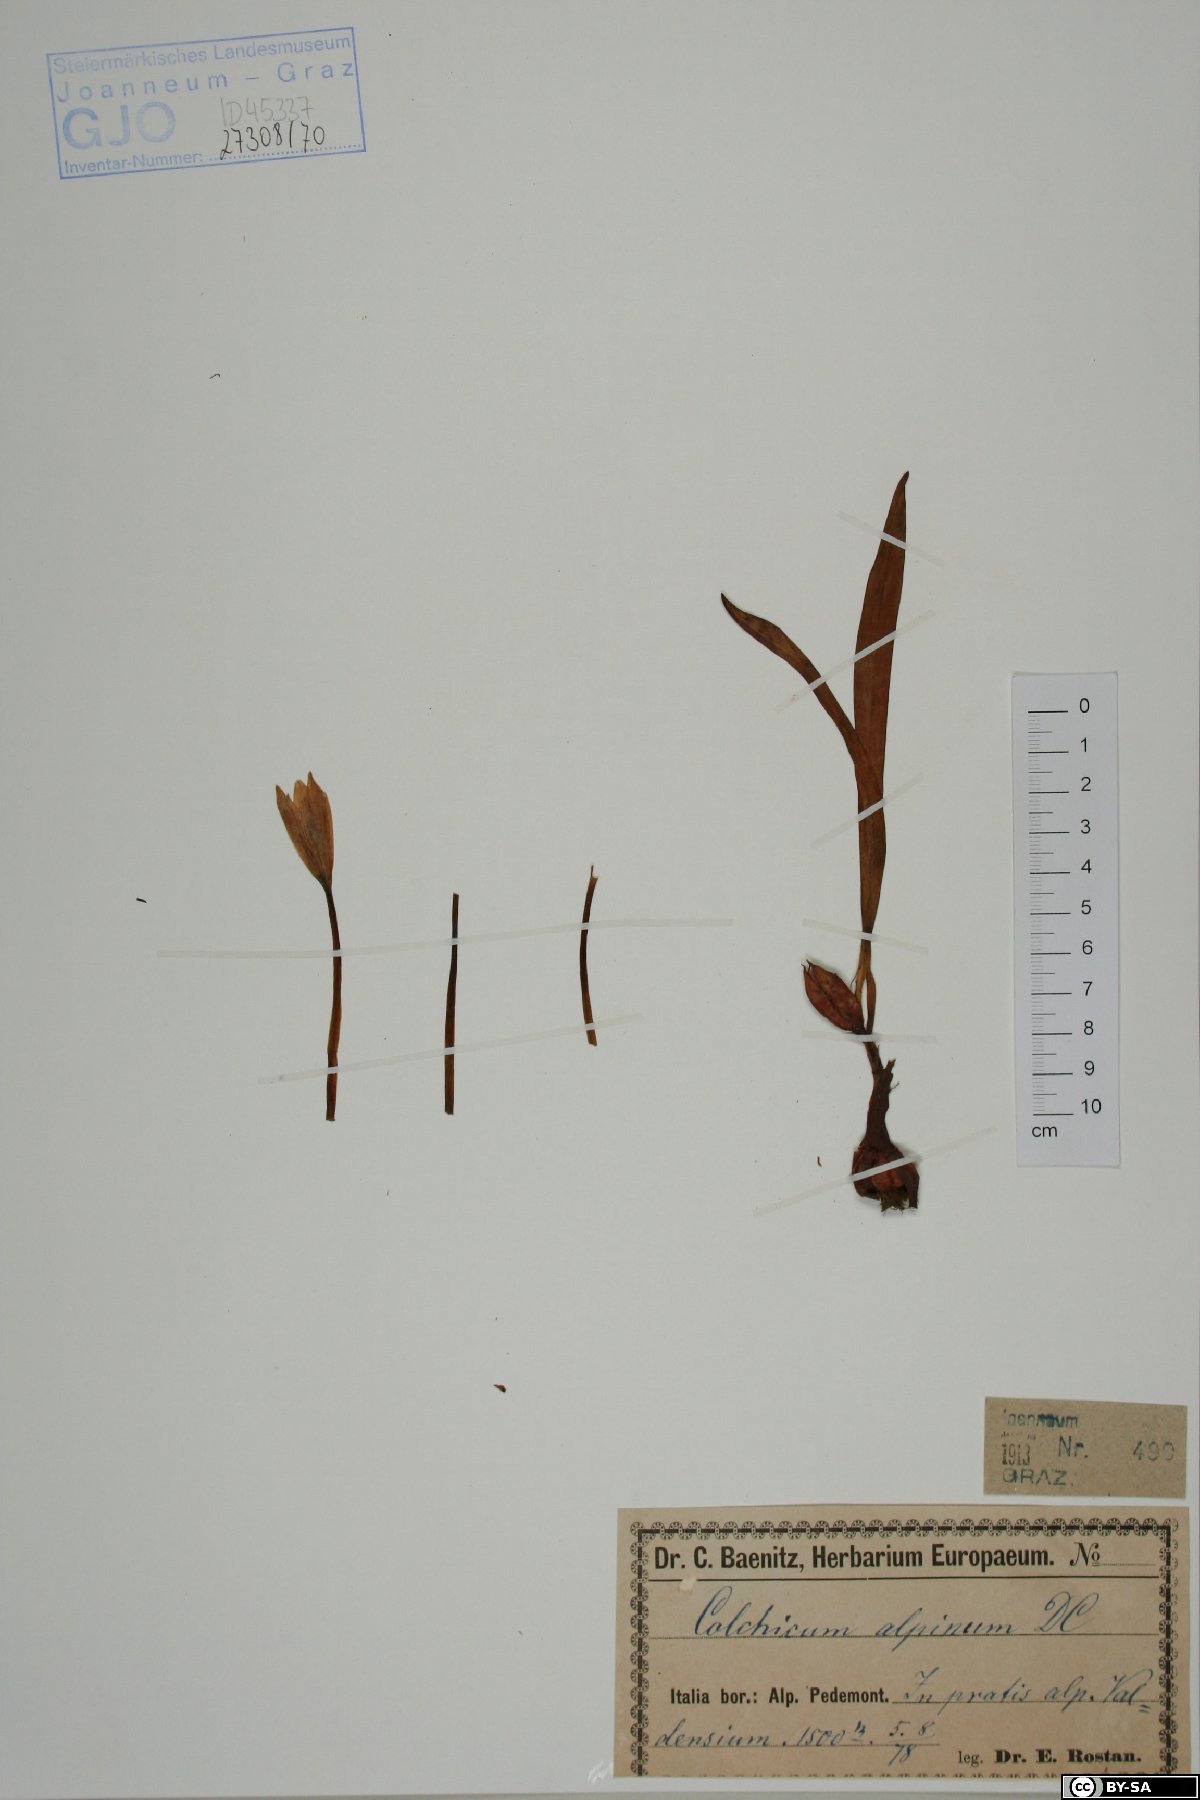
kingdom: Plantae
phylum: Tracheophyta
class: Liliopsida
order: Liliales
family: Colchicaceae
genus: Colchicum
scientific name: Colchicum alpinum
